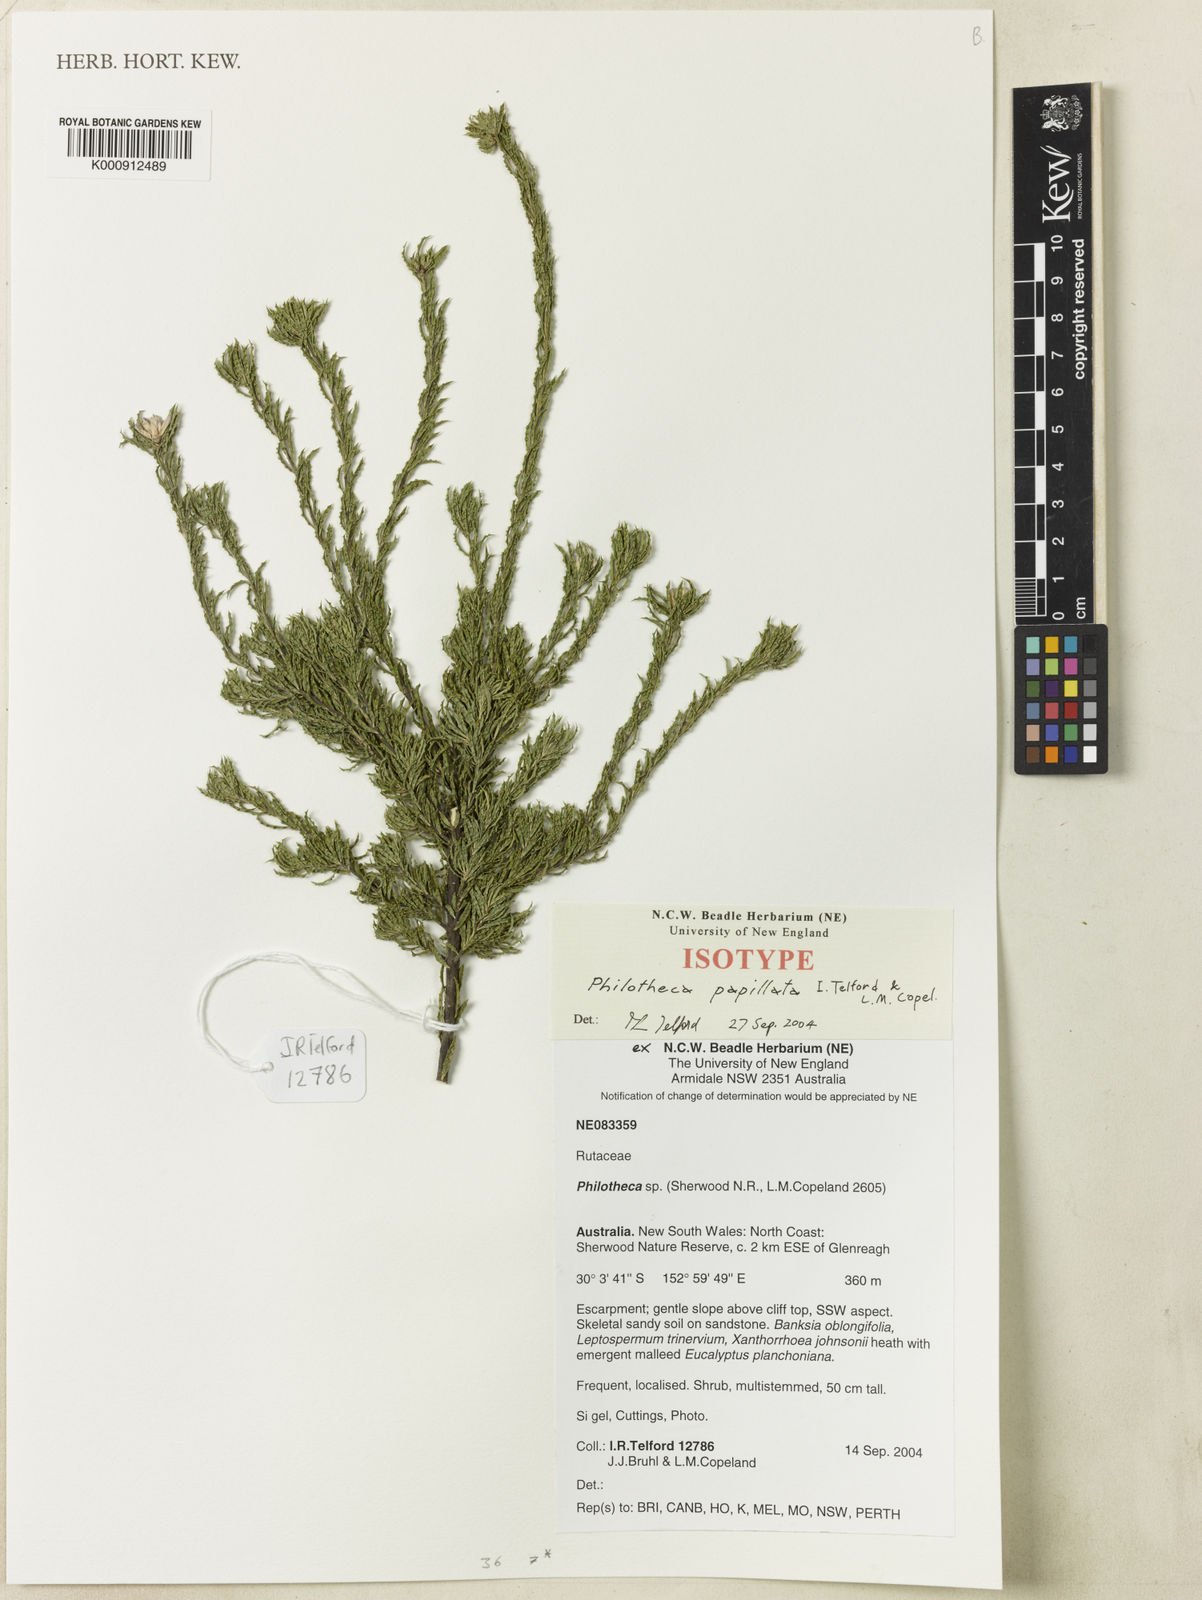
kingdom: Plantae
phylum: Tracheophyta
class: Magnoliopsida
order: Sapindales
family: Rutaceae
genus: Philotheca
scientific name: Philotheca papillata
